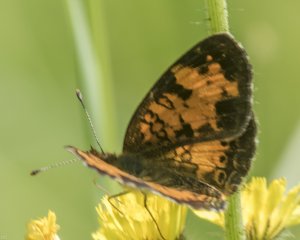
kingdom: Animalia
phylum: Arthropoda
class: Insecta
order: Lepidoptera
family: Nymphalidae
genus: Phyciodes
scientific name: Phyciodes tharos
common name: Northern Crescent
